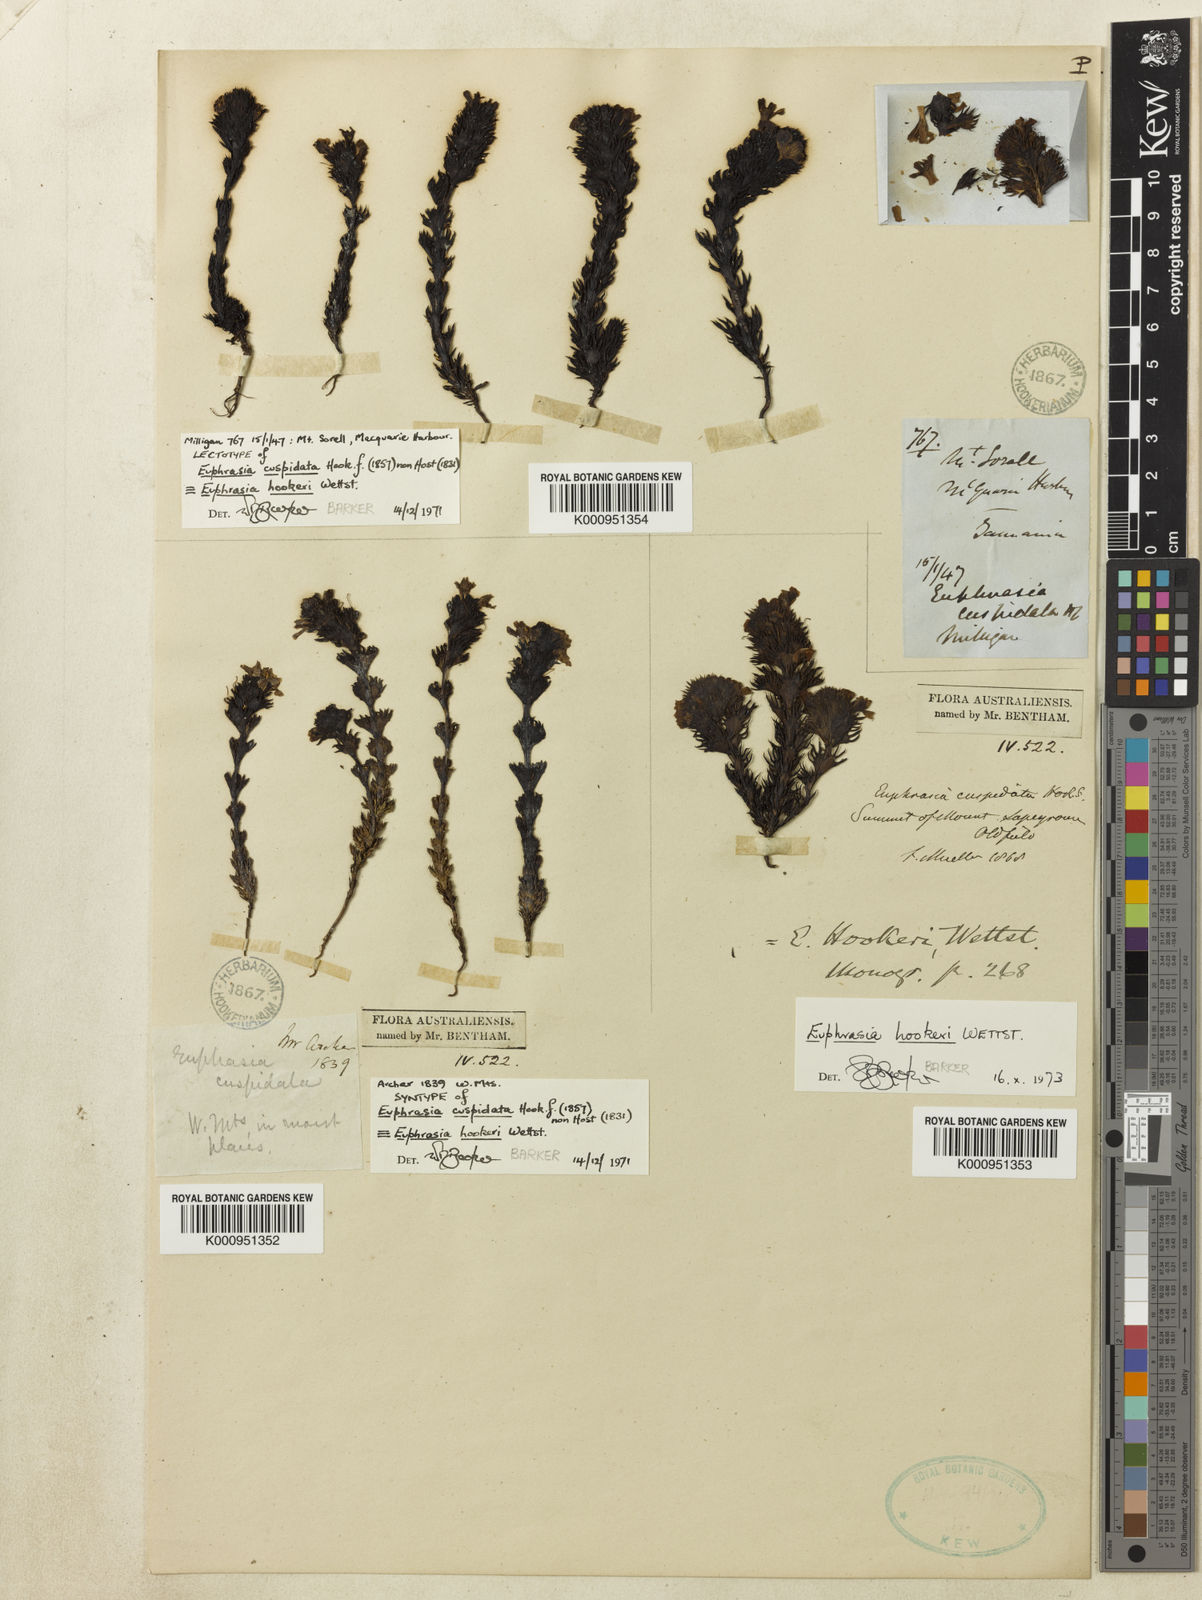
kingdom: Plantae
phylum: Tracheophyta
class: Magnoliopsida
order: Lamiales
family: Orobanchaceae
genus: Euphrasia
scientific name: Euphrasia hookeri
